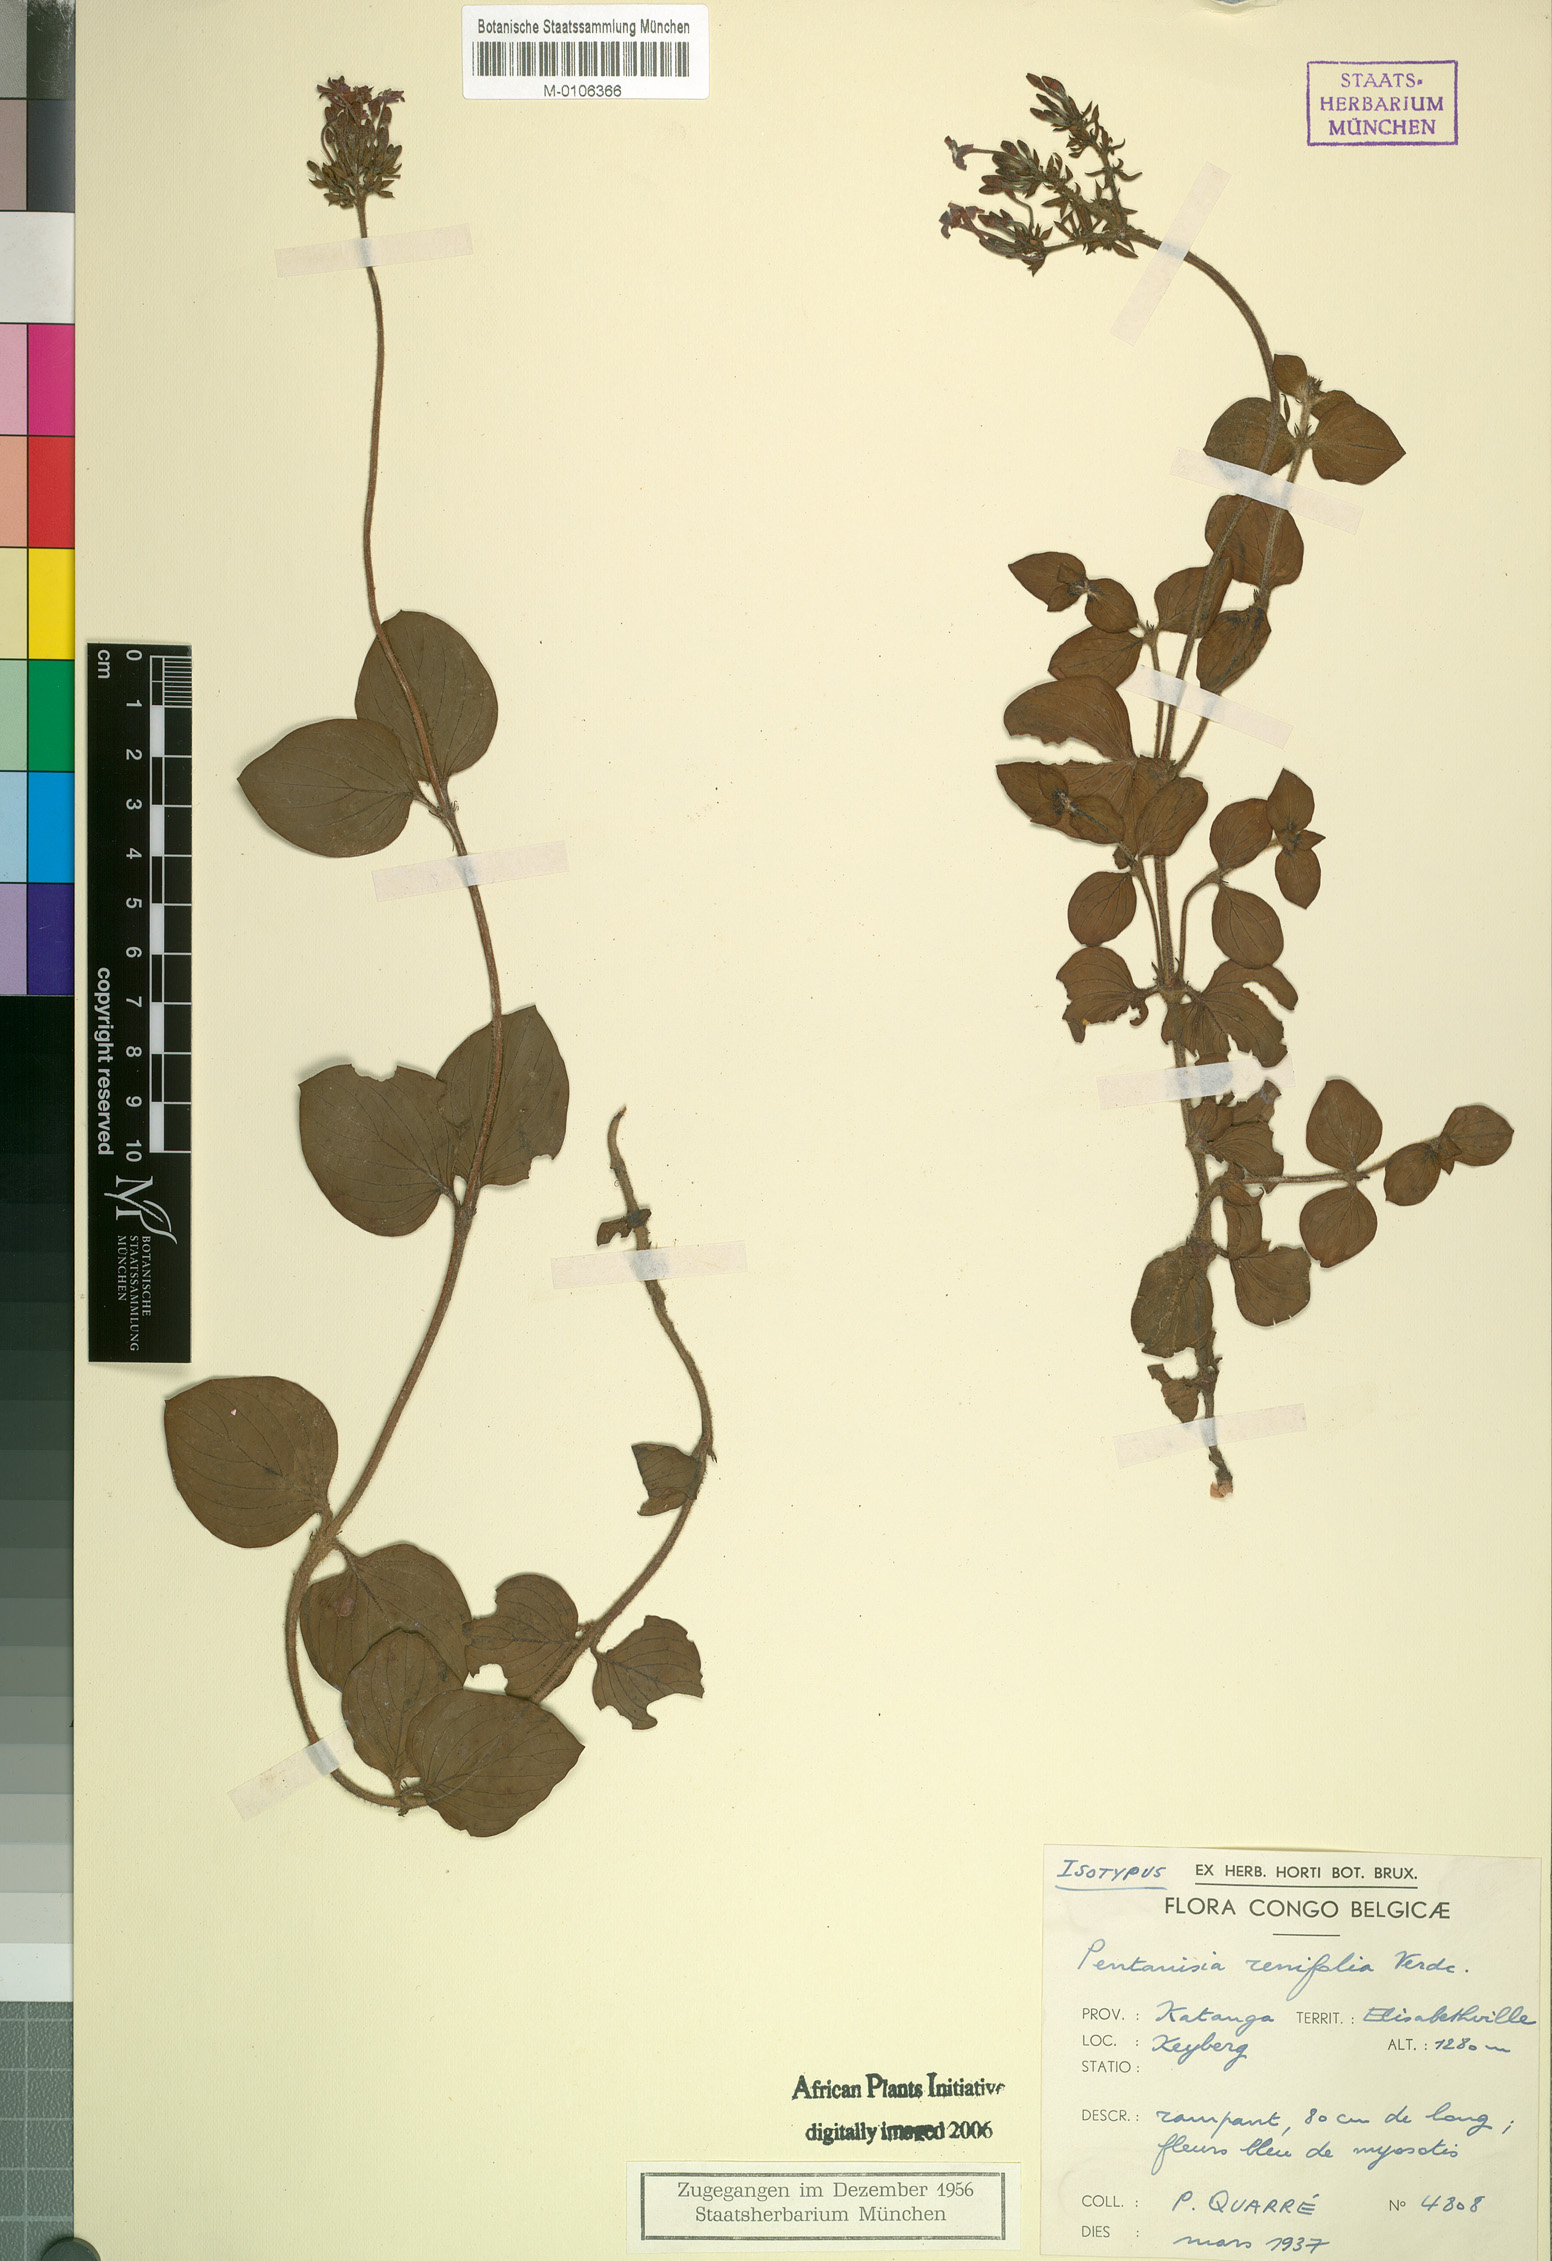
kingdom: Plantae
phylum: Tracheophyta
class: Magnoliopsida
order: Gentianales
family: Rubiaceae
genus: Pentanisia
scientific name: Pentanisia renifolia
